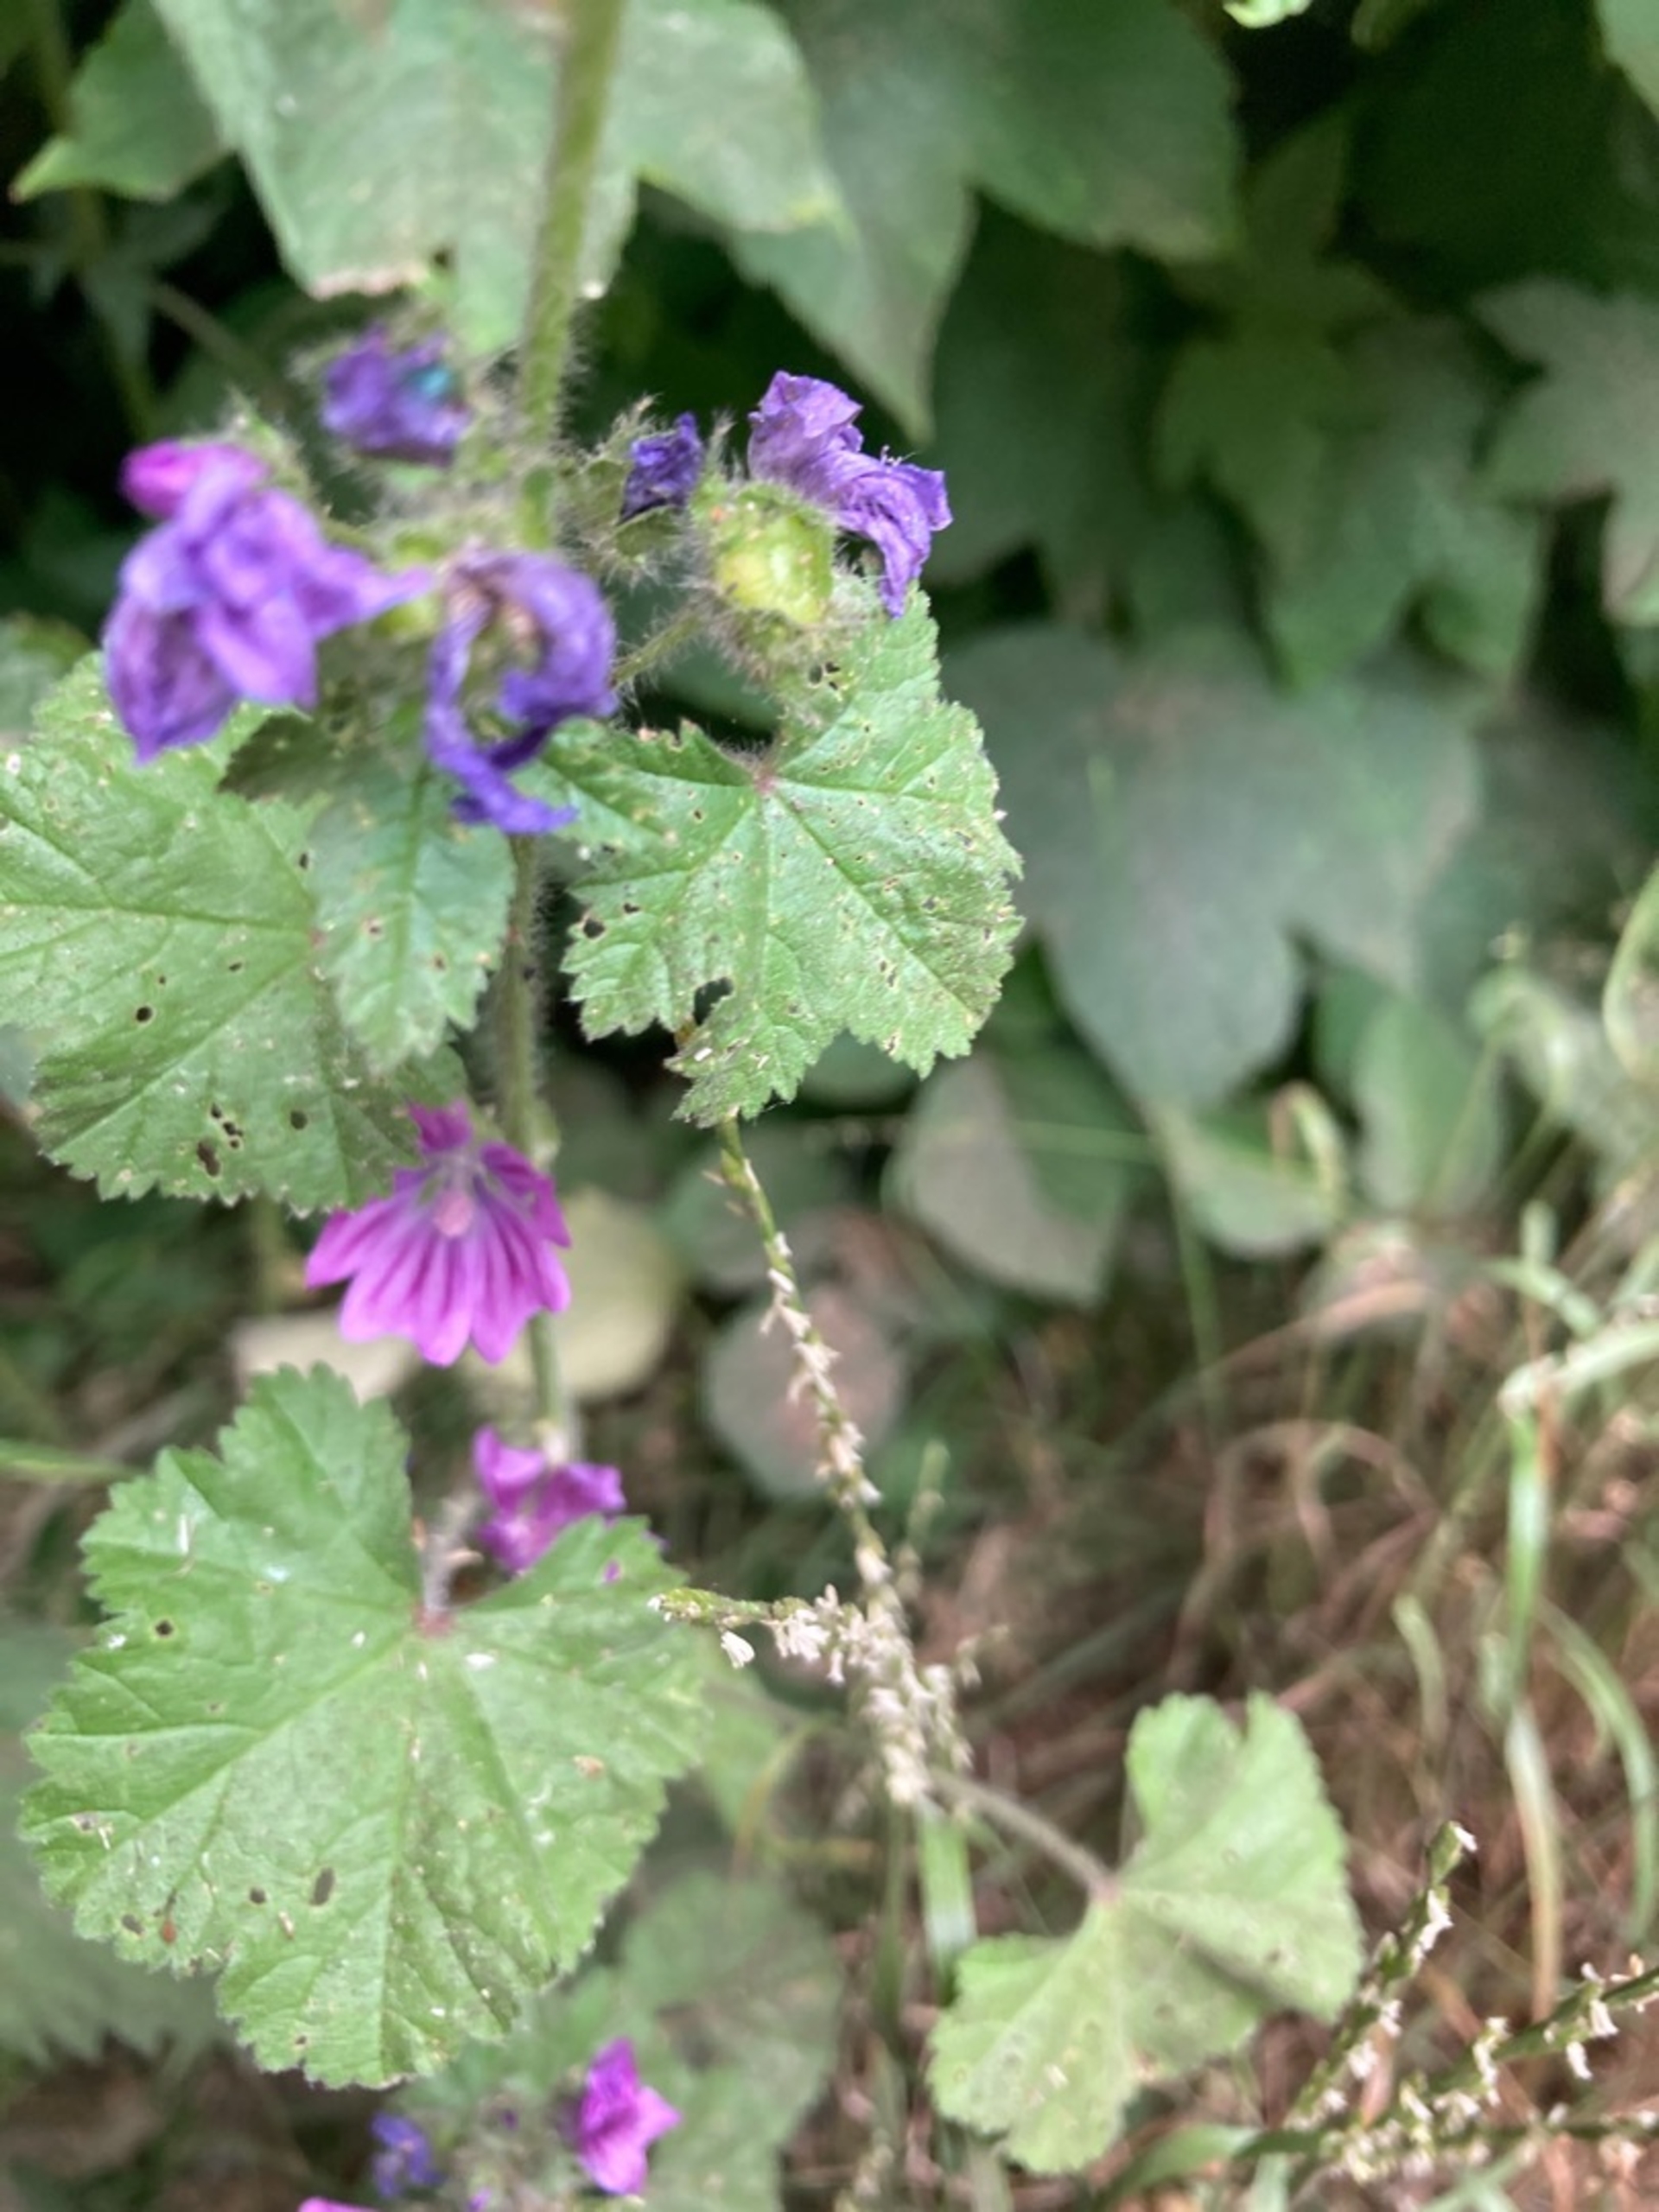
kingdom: Plantae
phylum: Tracheophyta
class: Magnoliopsida
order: Malvales
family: Malvaceae
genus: Malva
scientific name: Malva sylvestris
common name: Almindelig katost
